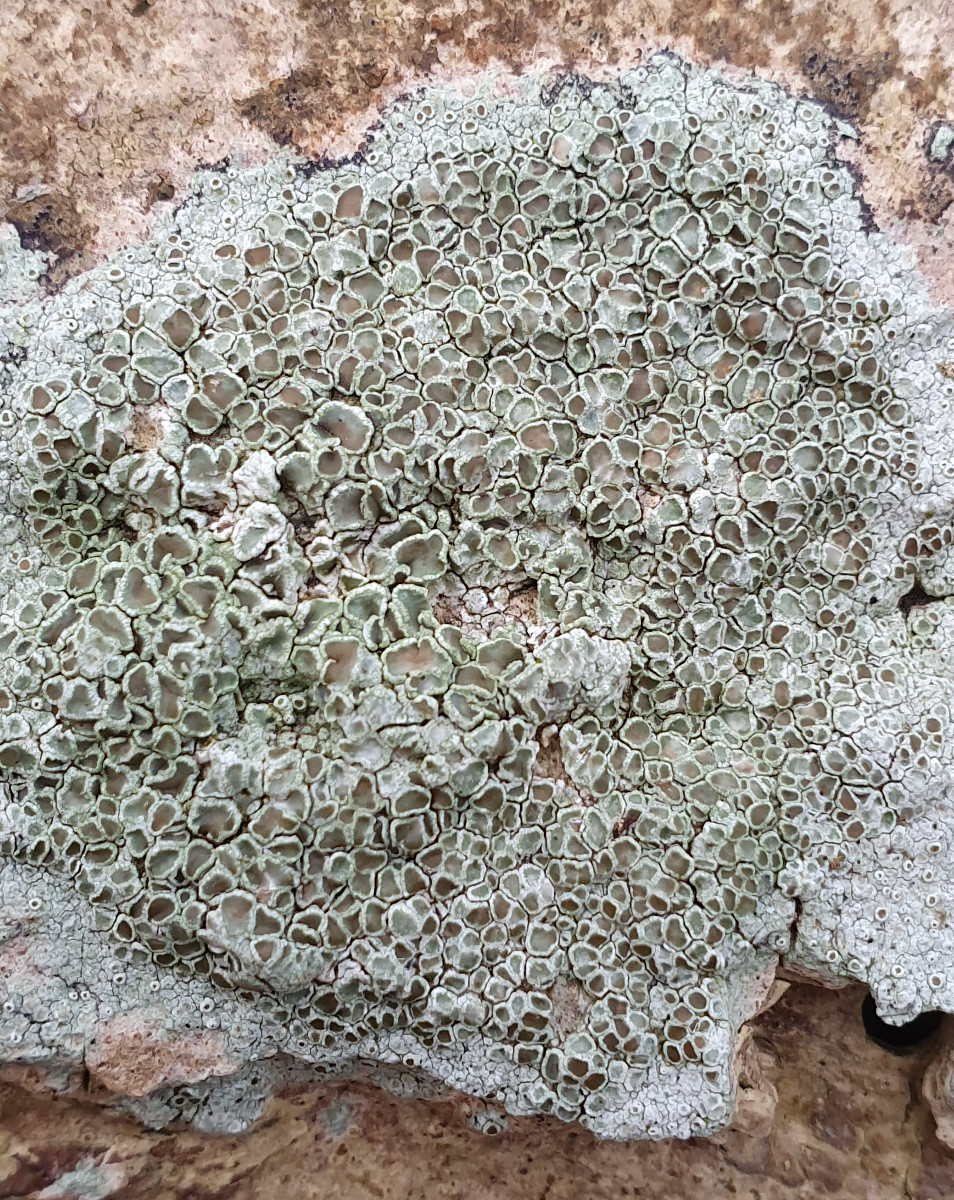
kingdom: Fungi
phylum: Ascomycota
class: Lecanoromycetes
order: Lecanorales
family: Lecanoraceae
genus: Lecanora
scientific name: Lecanora chlarotera
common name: brun kantskivelav
